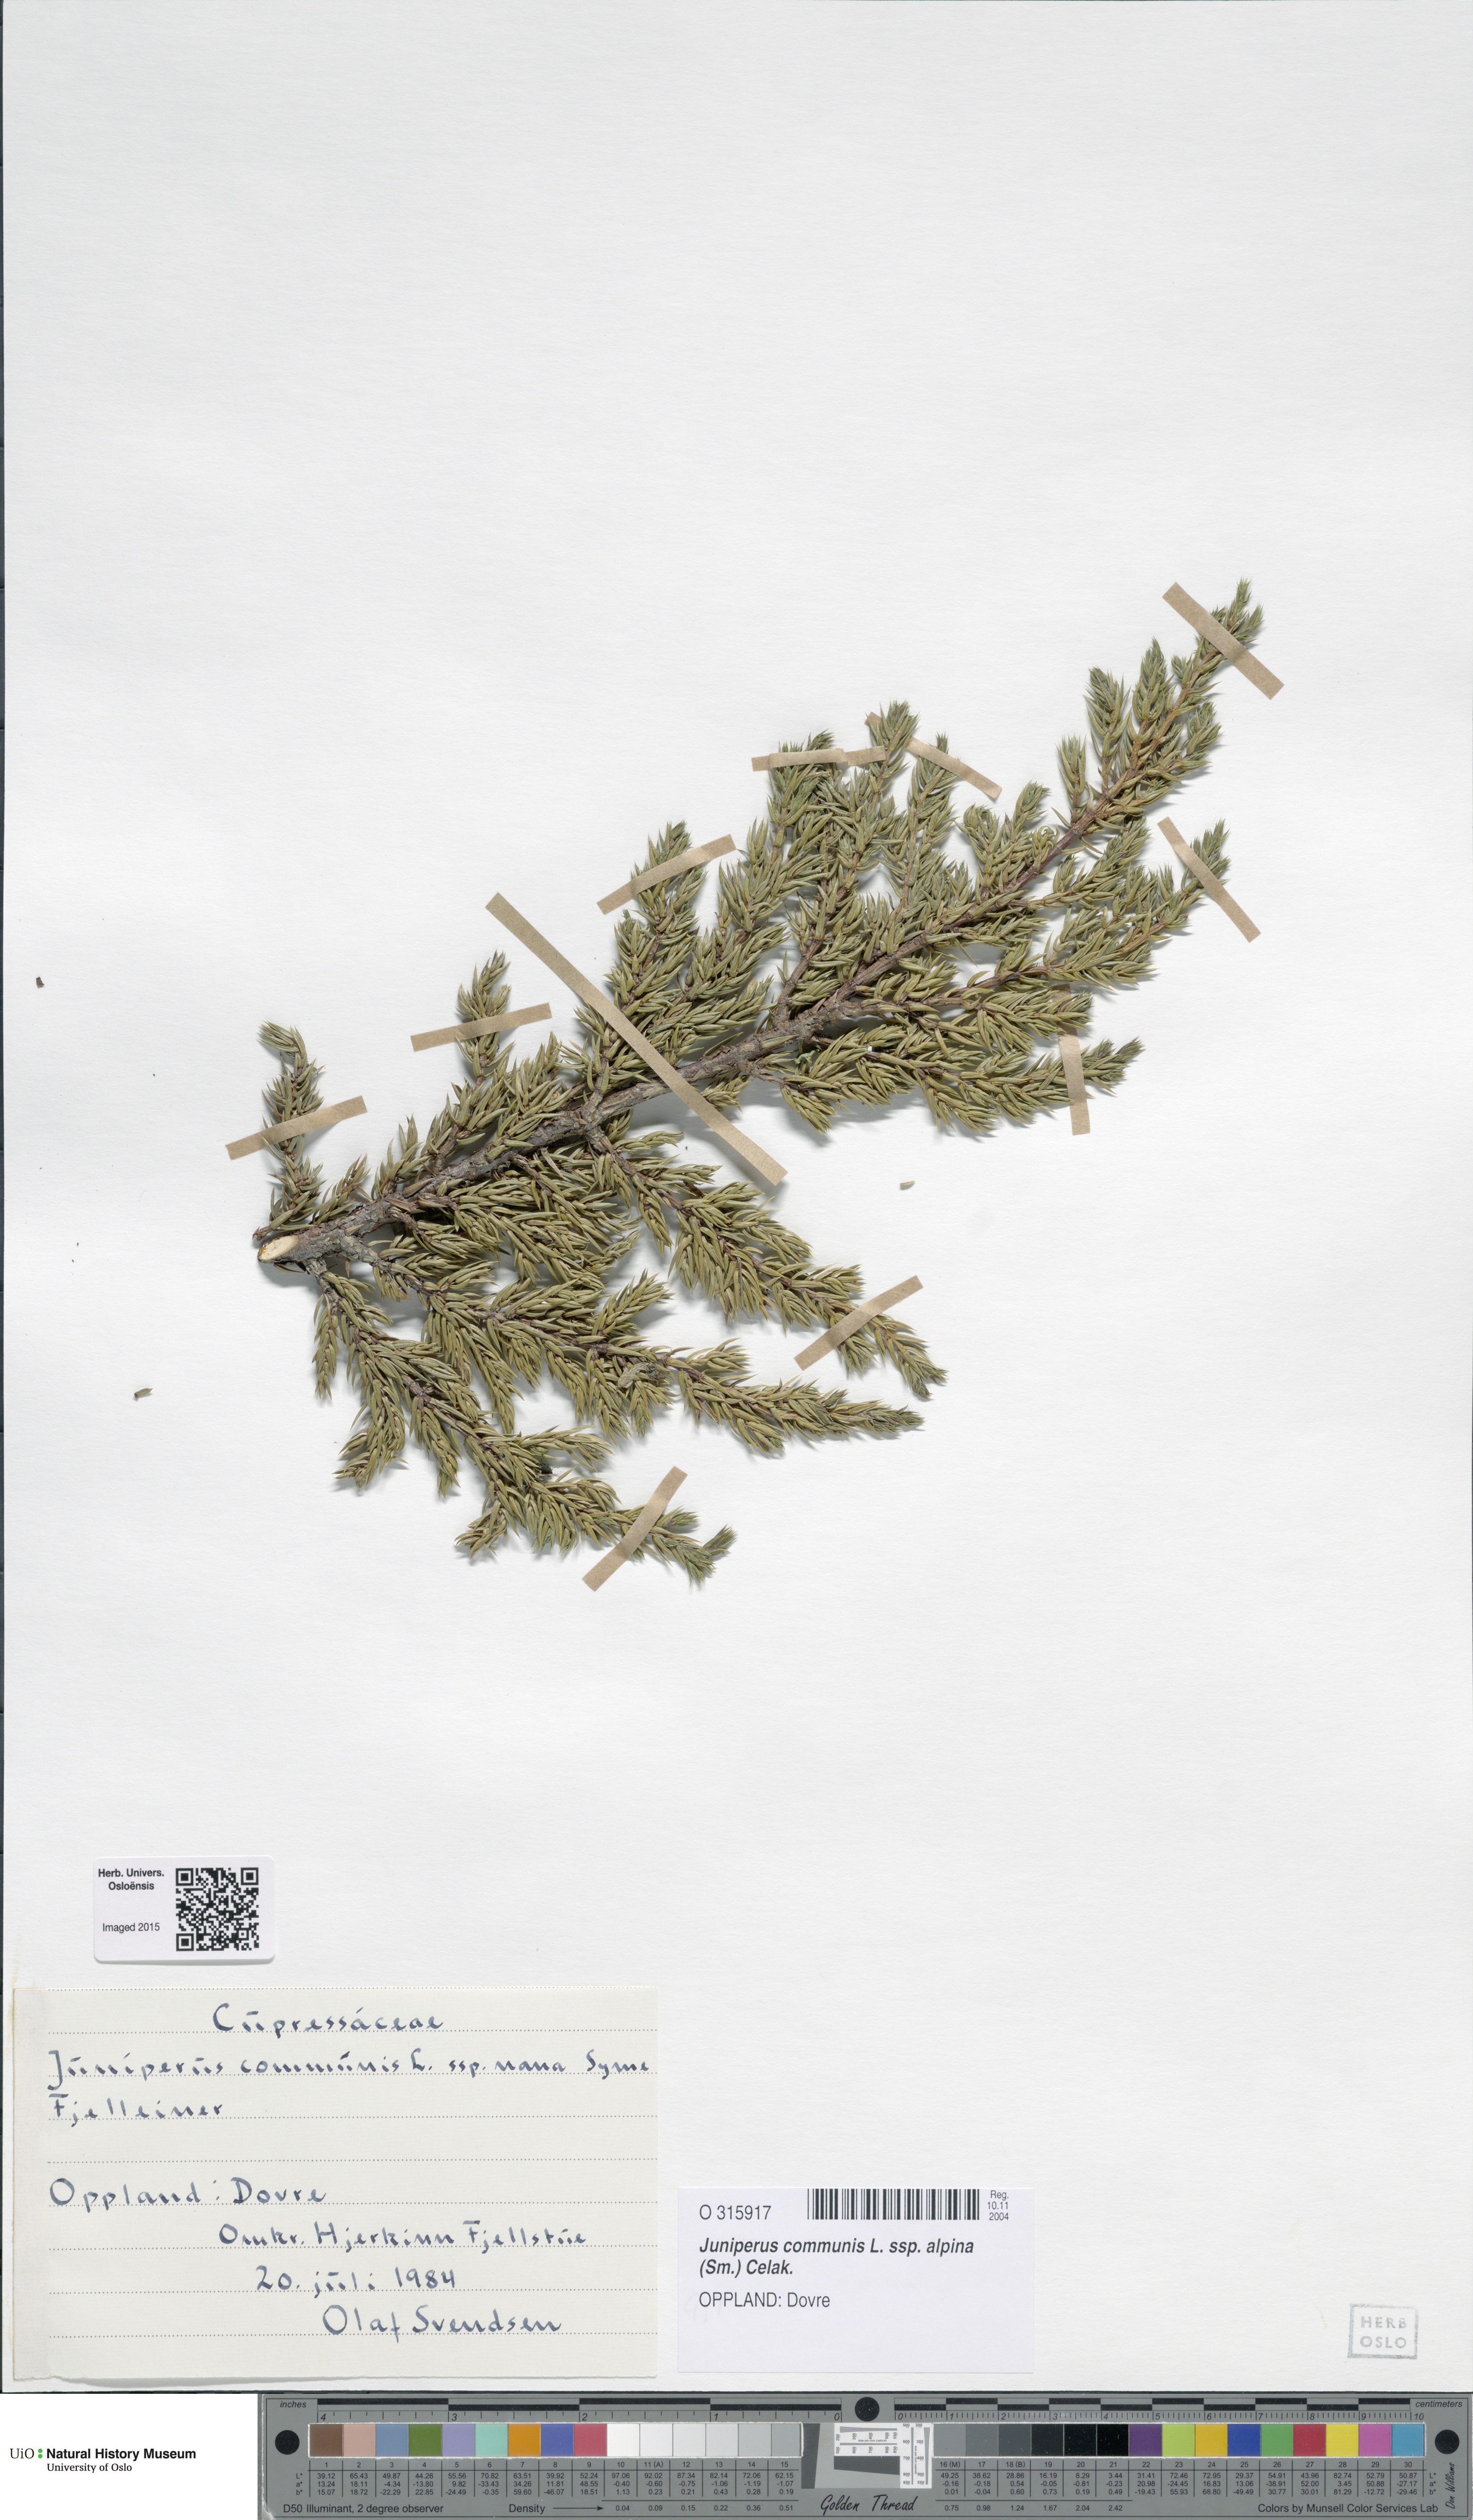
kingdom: Plantae
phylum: Tracheophyta
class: Pinopsida
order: Pinales
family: Cupressaceae
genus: Juniperus
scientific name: Juniperus communis
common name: Common juniper
